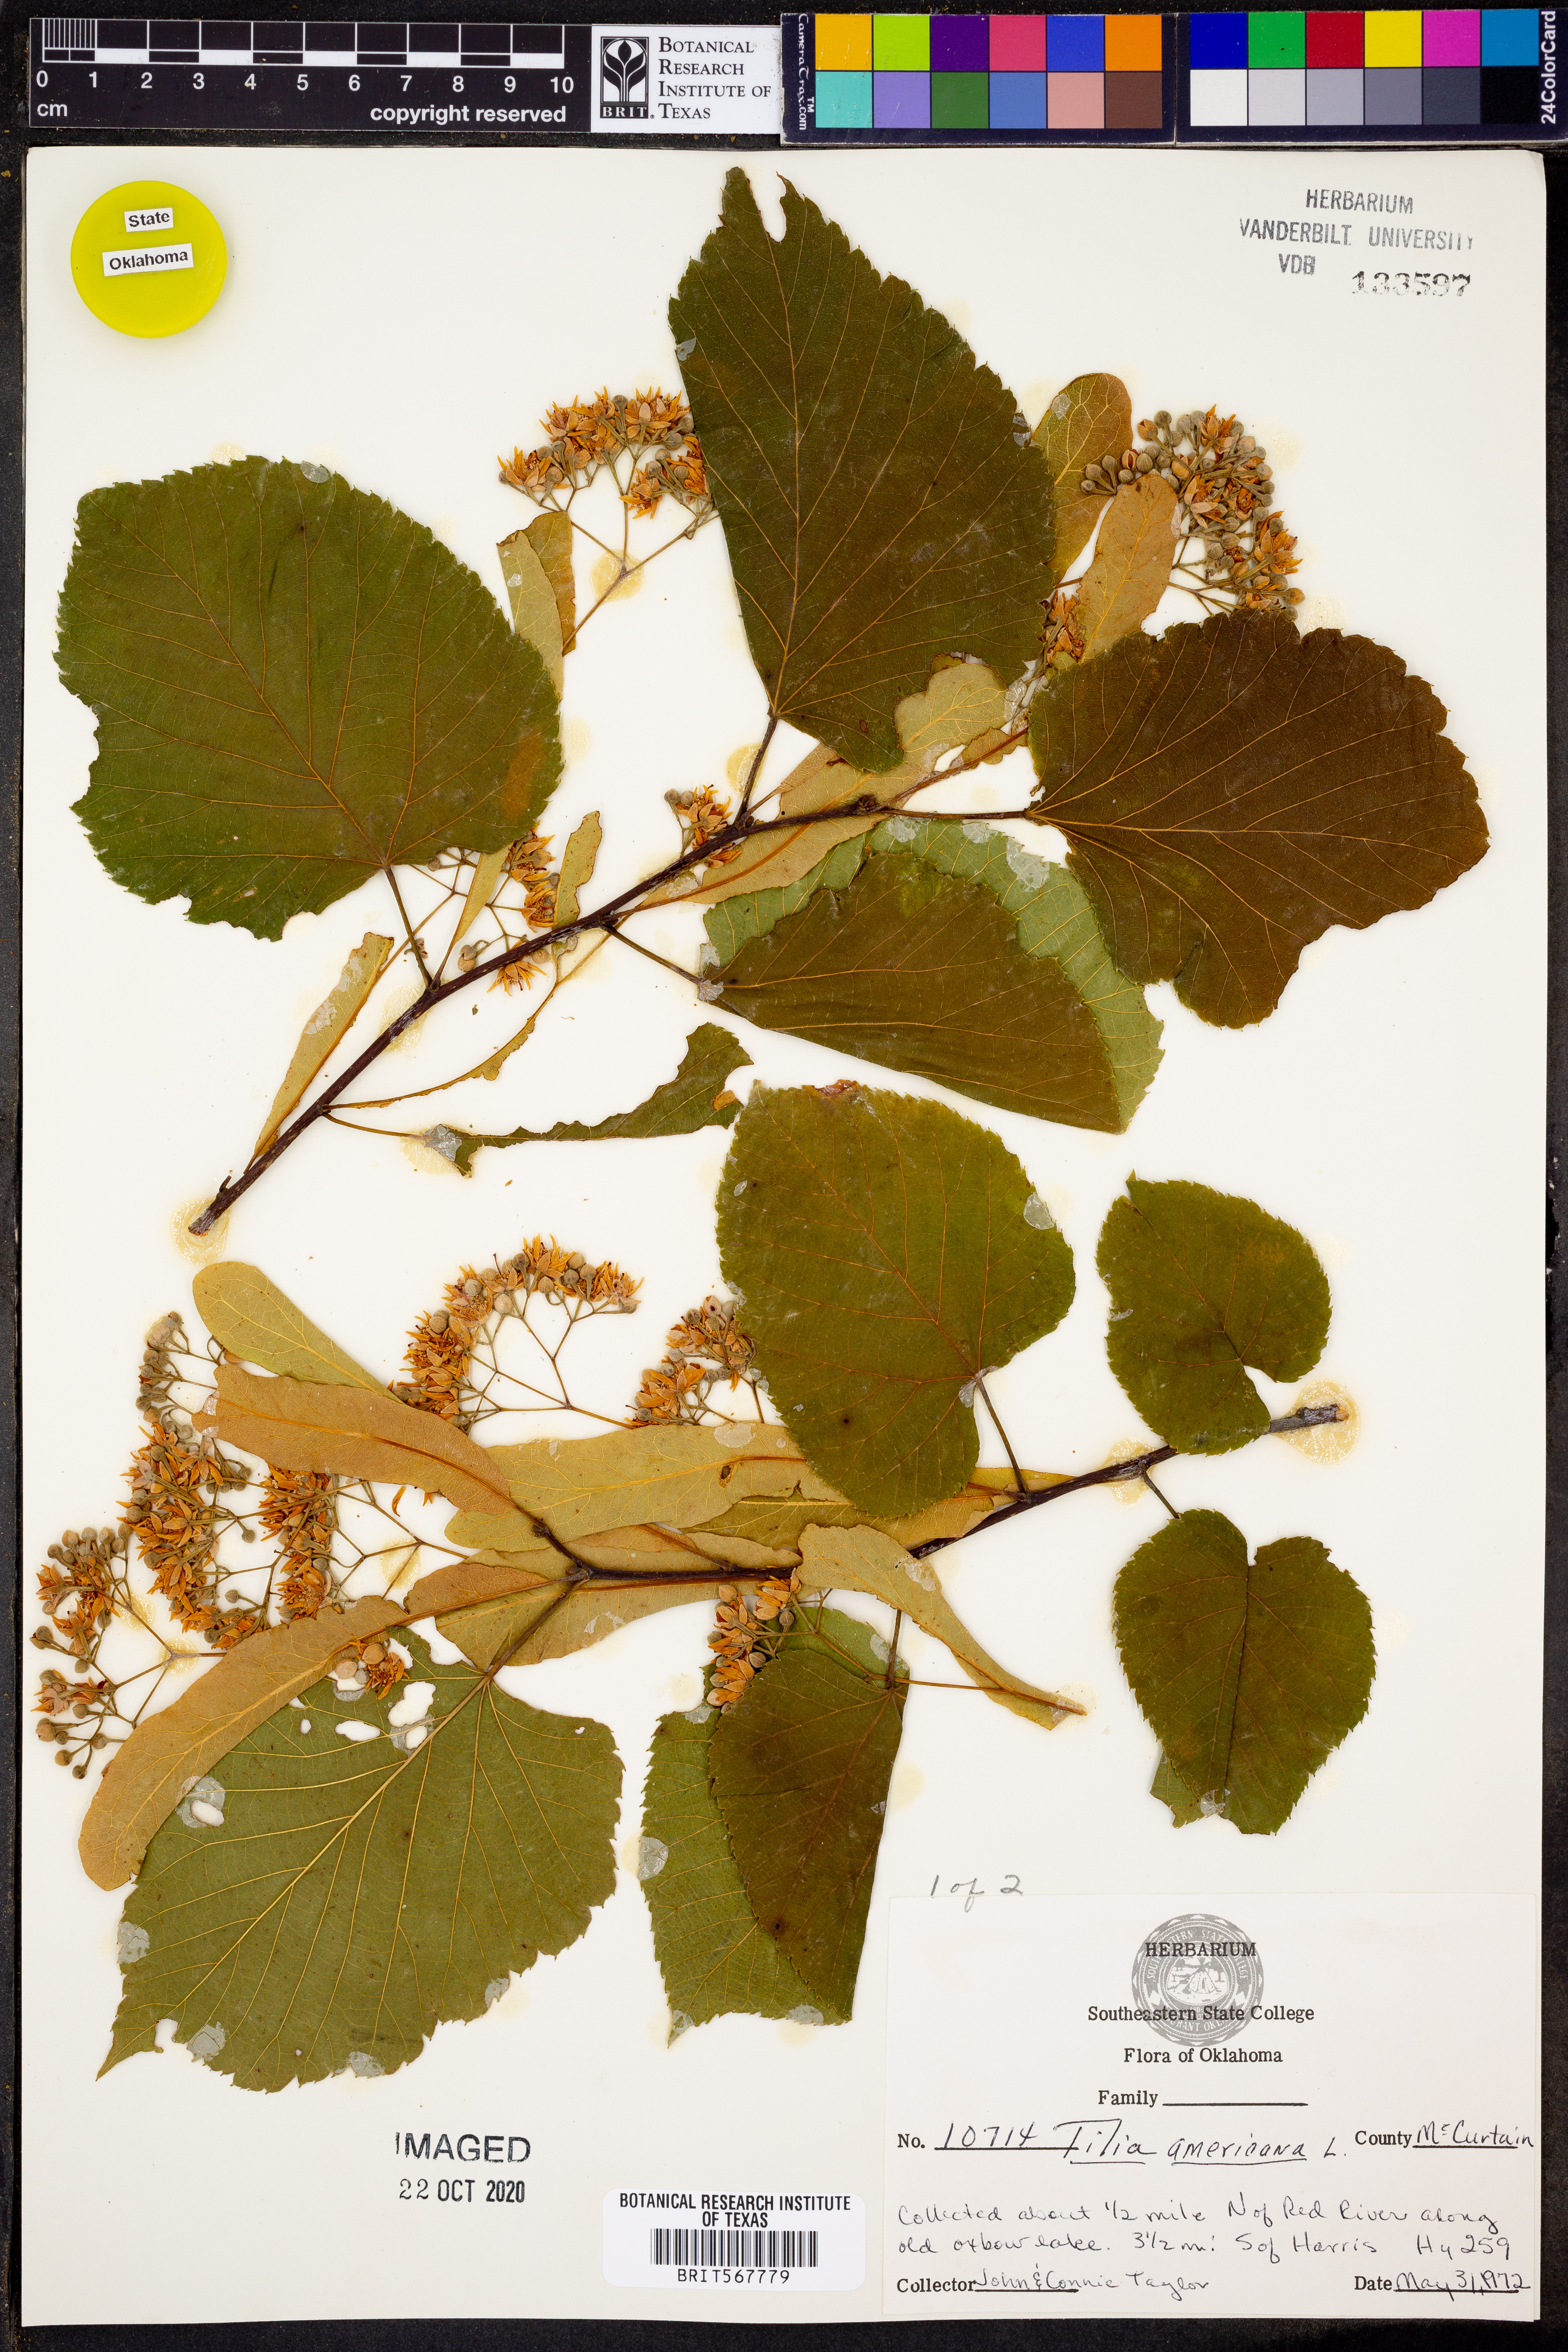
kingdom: Plantae
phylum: Tracheophyta
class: Magnoliopsida
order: Malvales
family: Malvaceae
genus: Tilia
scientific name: Tilia americana
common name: Basswood
